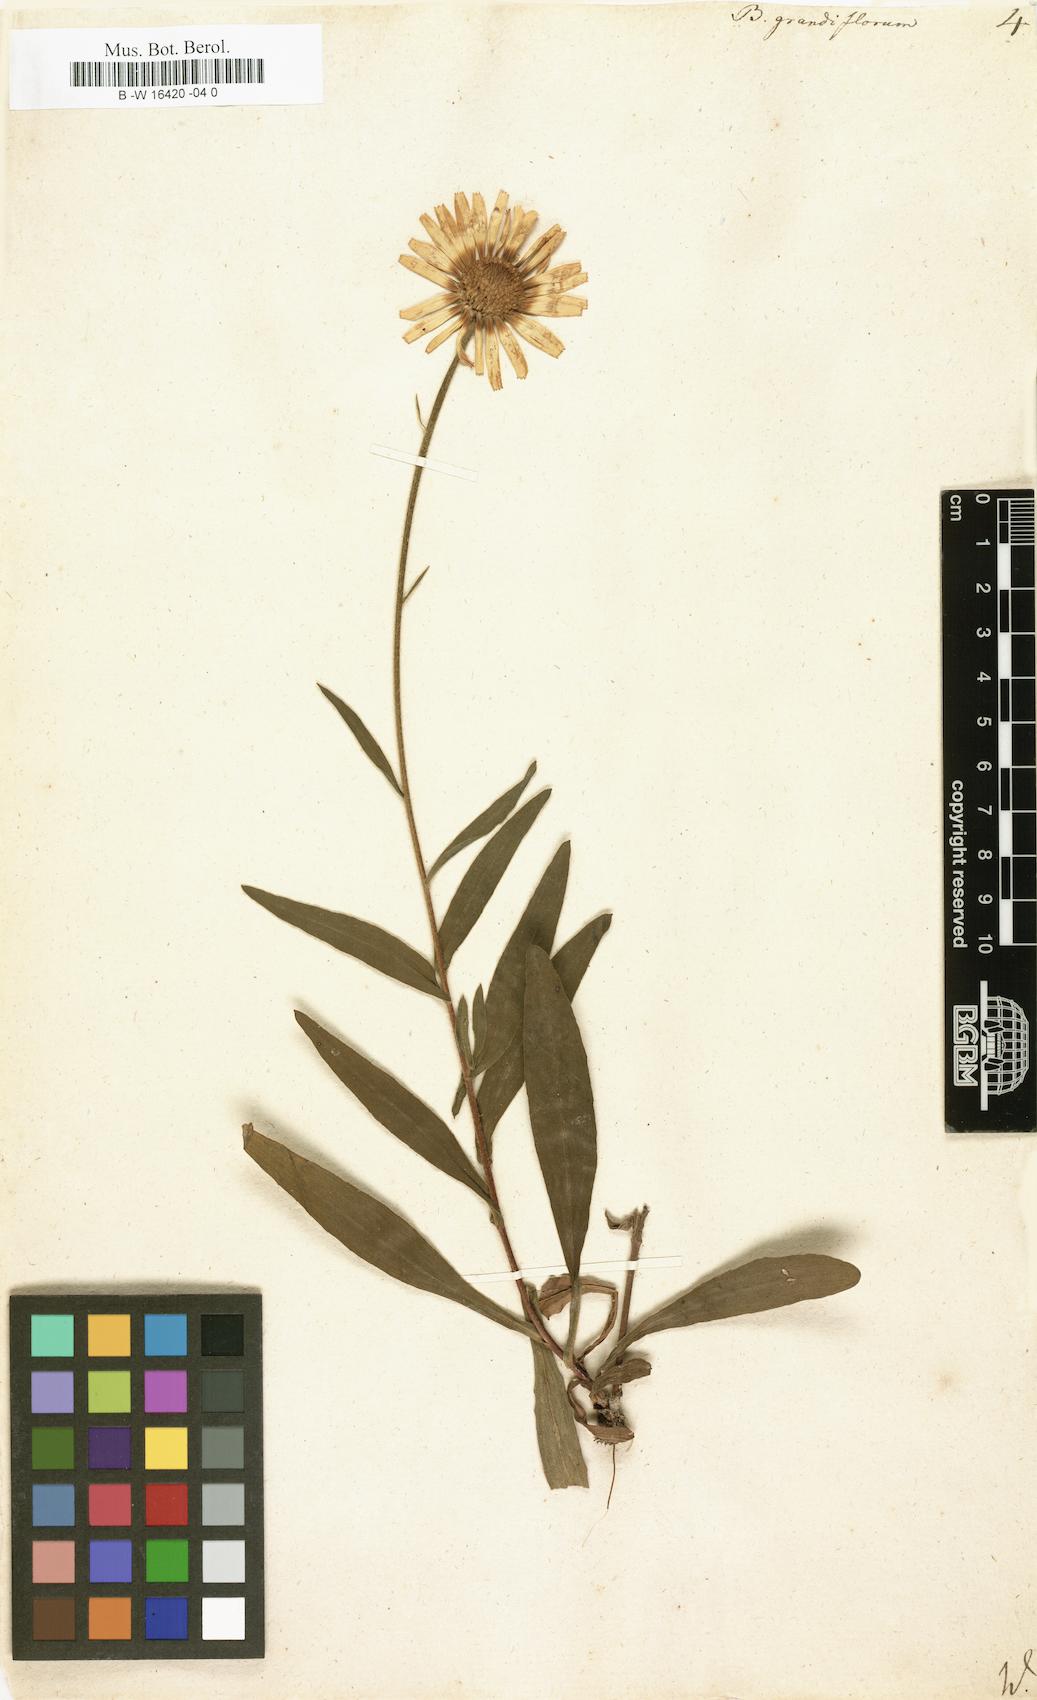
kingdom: Plantae
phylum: Tracheophyta
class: Magnoliopsida
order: Asterales
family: Asteraceae
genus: Buphthalmum
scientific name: Buphthalmum salicifolium
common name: Willow-leaved yellow-oxeye
